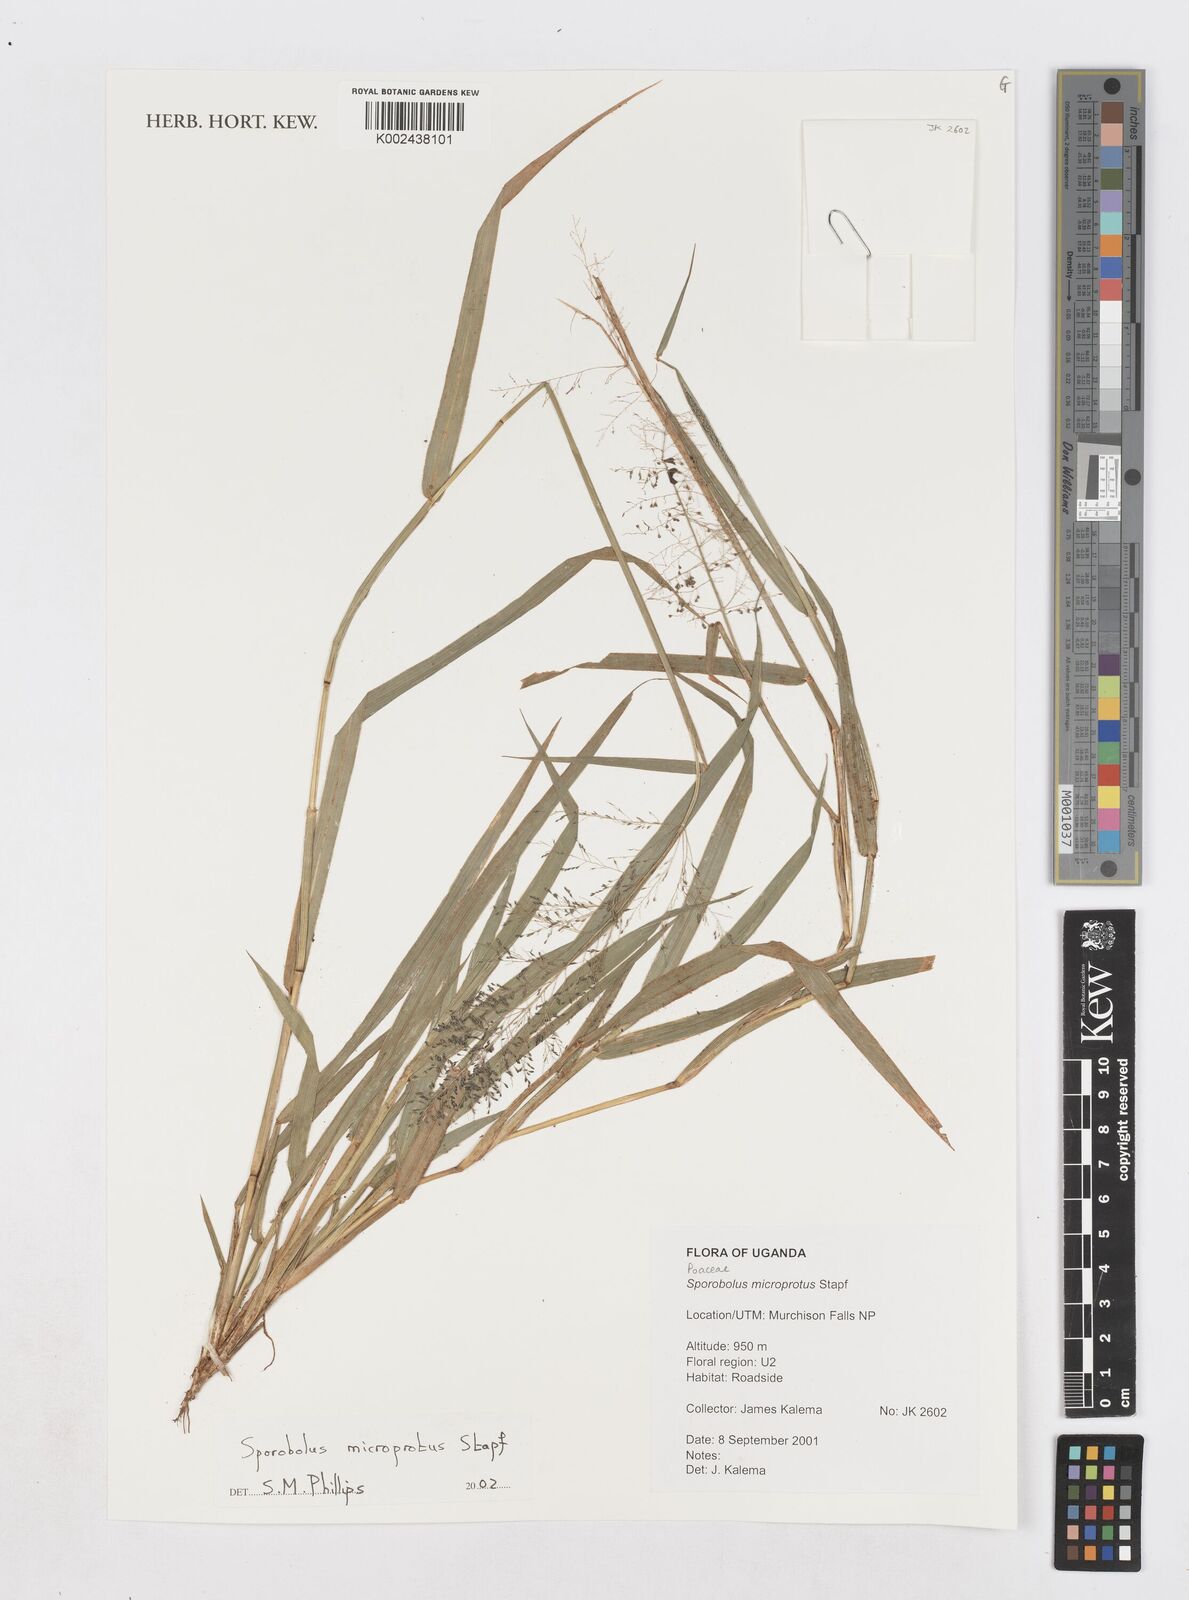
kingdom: Plantae
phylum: Tracheophyta
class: Liliopsida
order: Poales
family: Poaceae
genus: Sporobolus
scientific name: Sporobolus microprotus
